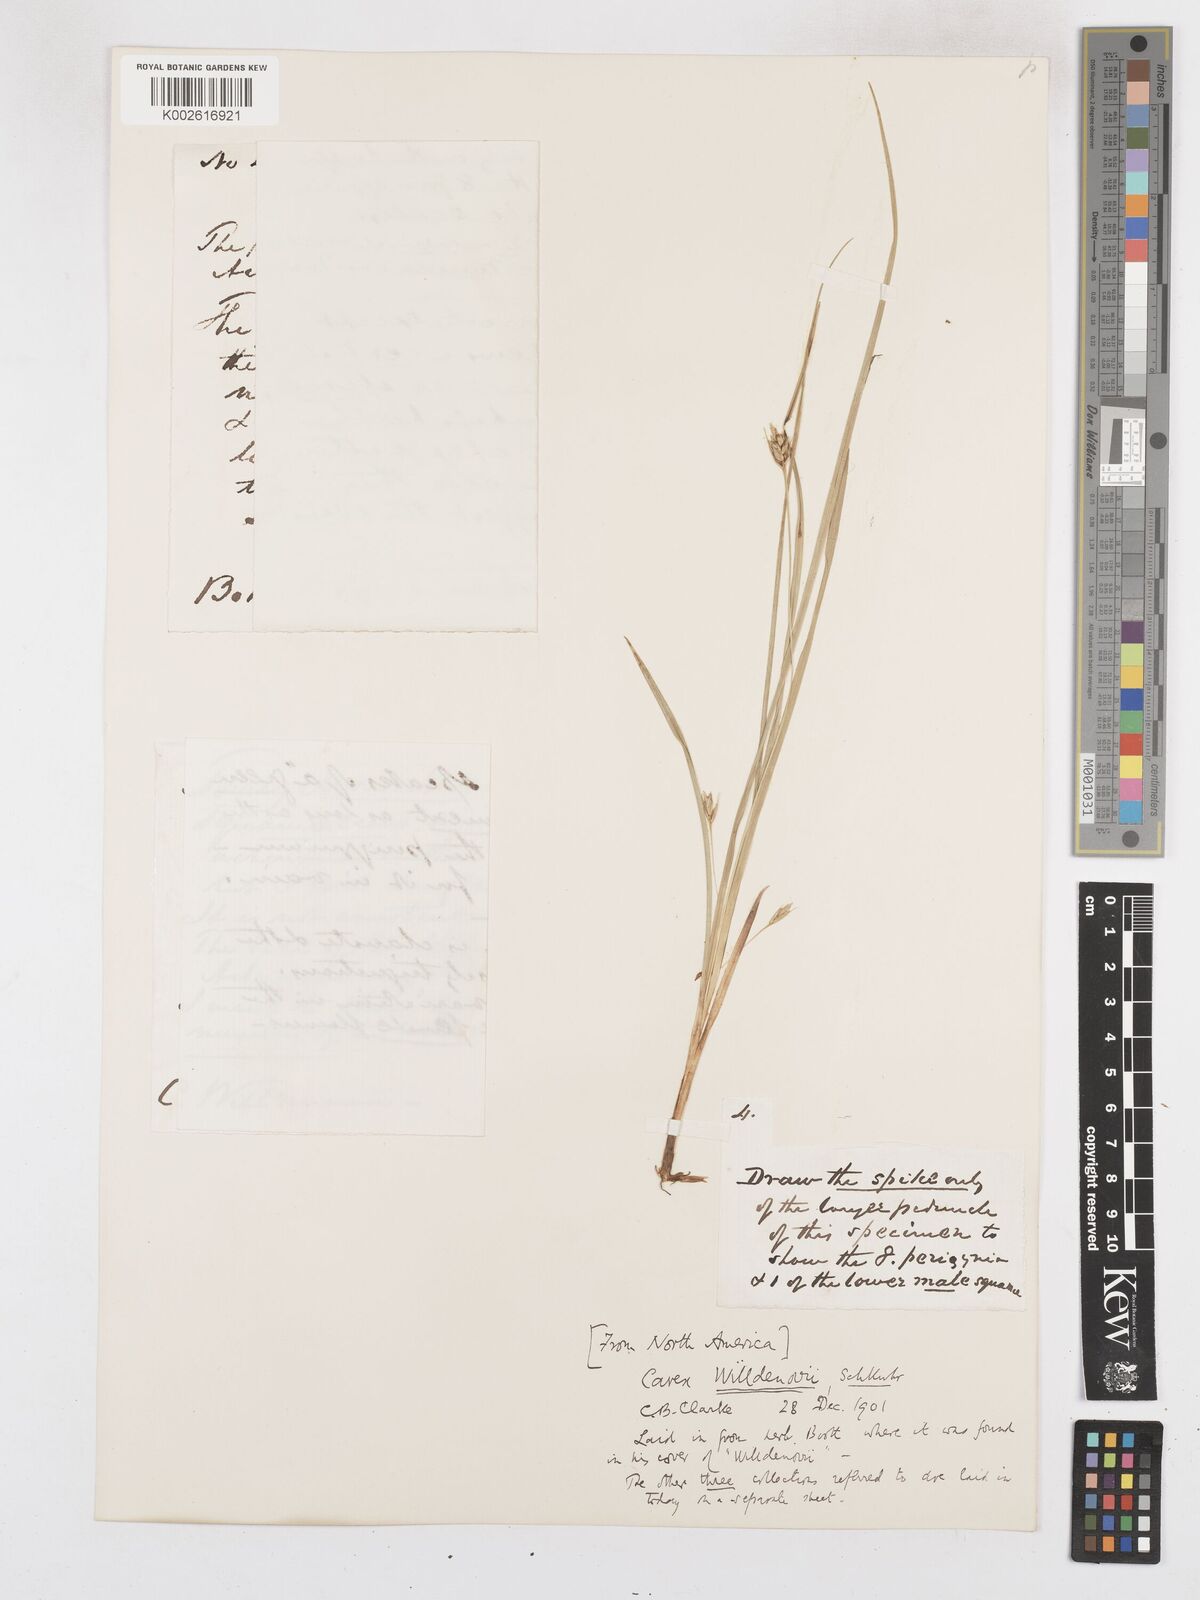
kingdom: Plantae
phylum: Tracheophyta
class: Liliopsida
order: Poales
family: Cyperaceae
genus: Carex
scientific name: Carex willdenowii
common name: Willdenow's sedge
